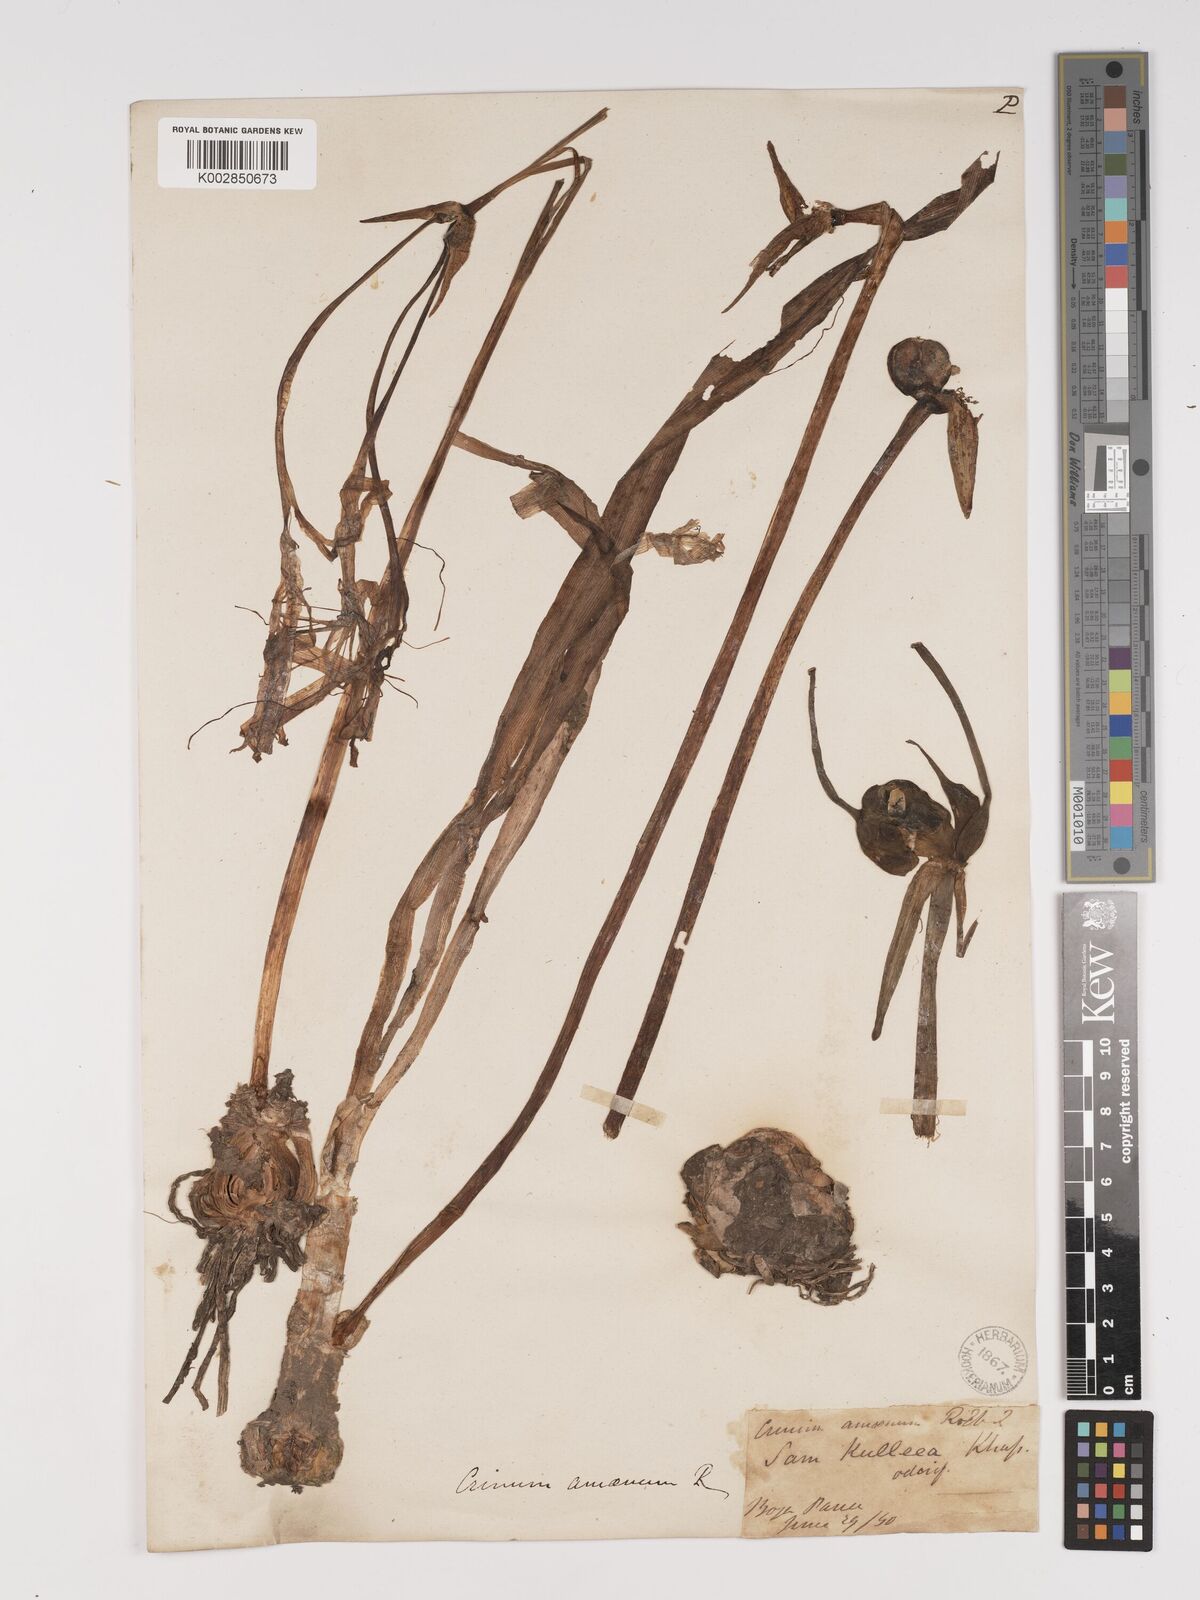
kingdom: Plantae
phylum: Tracheophyta
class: Liliopsida
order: Asparagales
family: Amaryllidaceae
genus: Crinum
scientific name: Crinum amoenum
